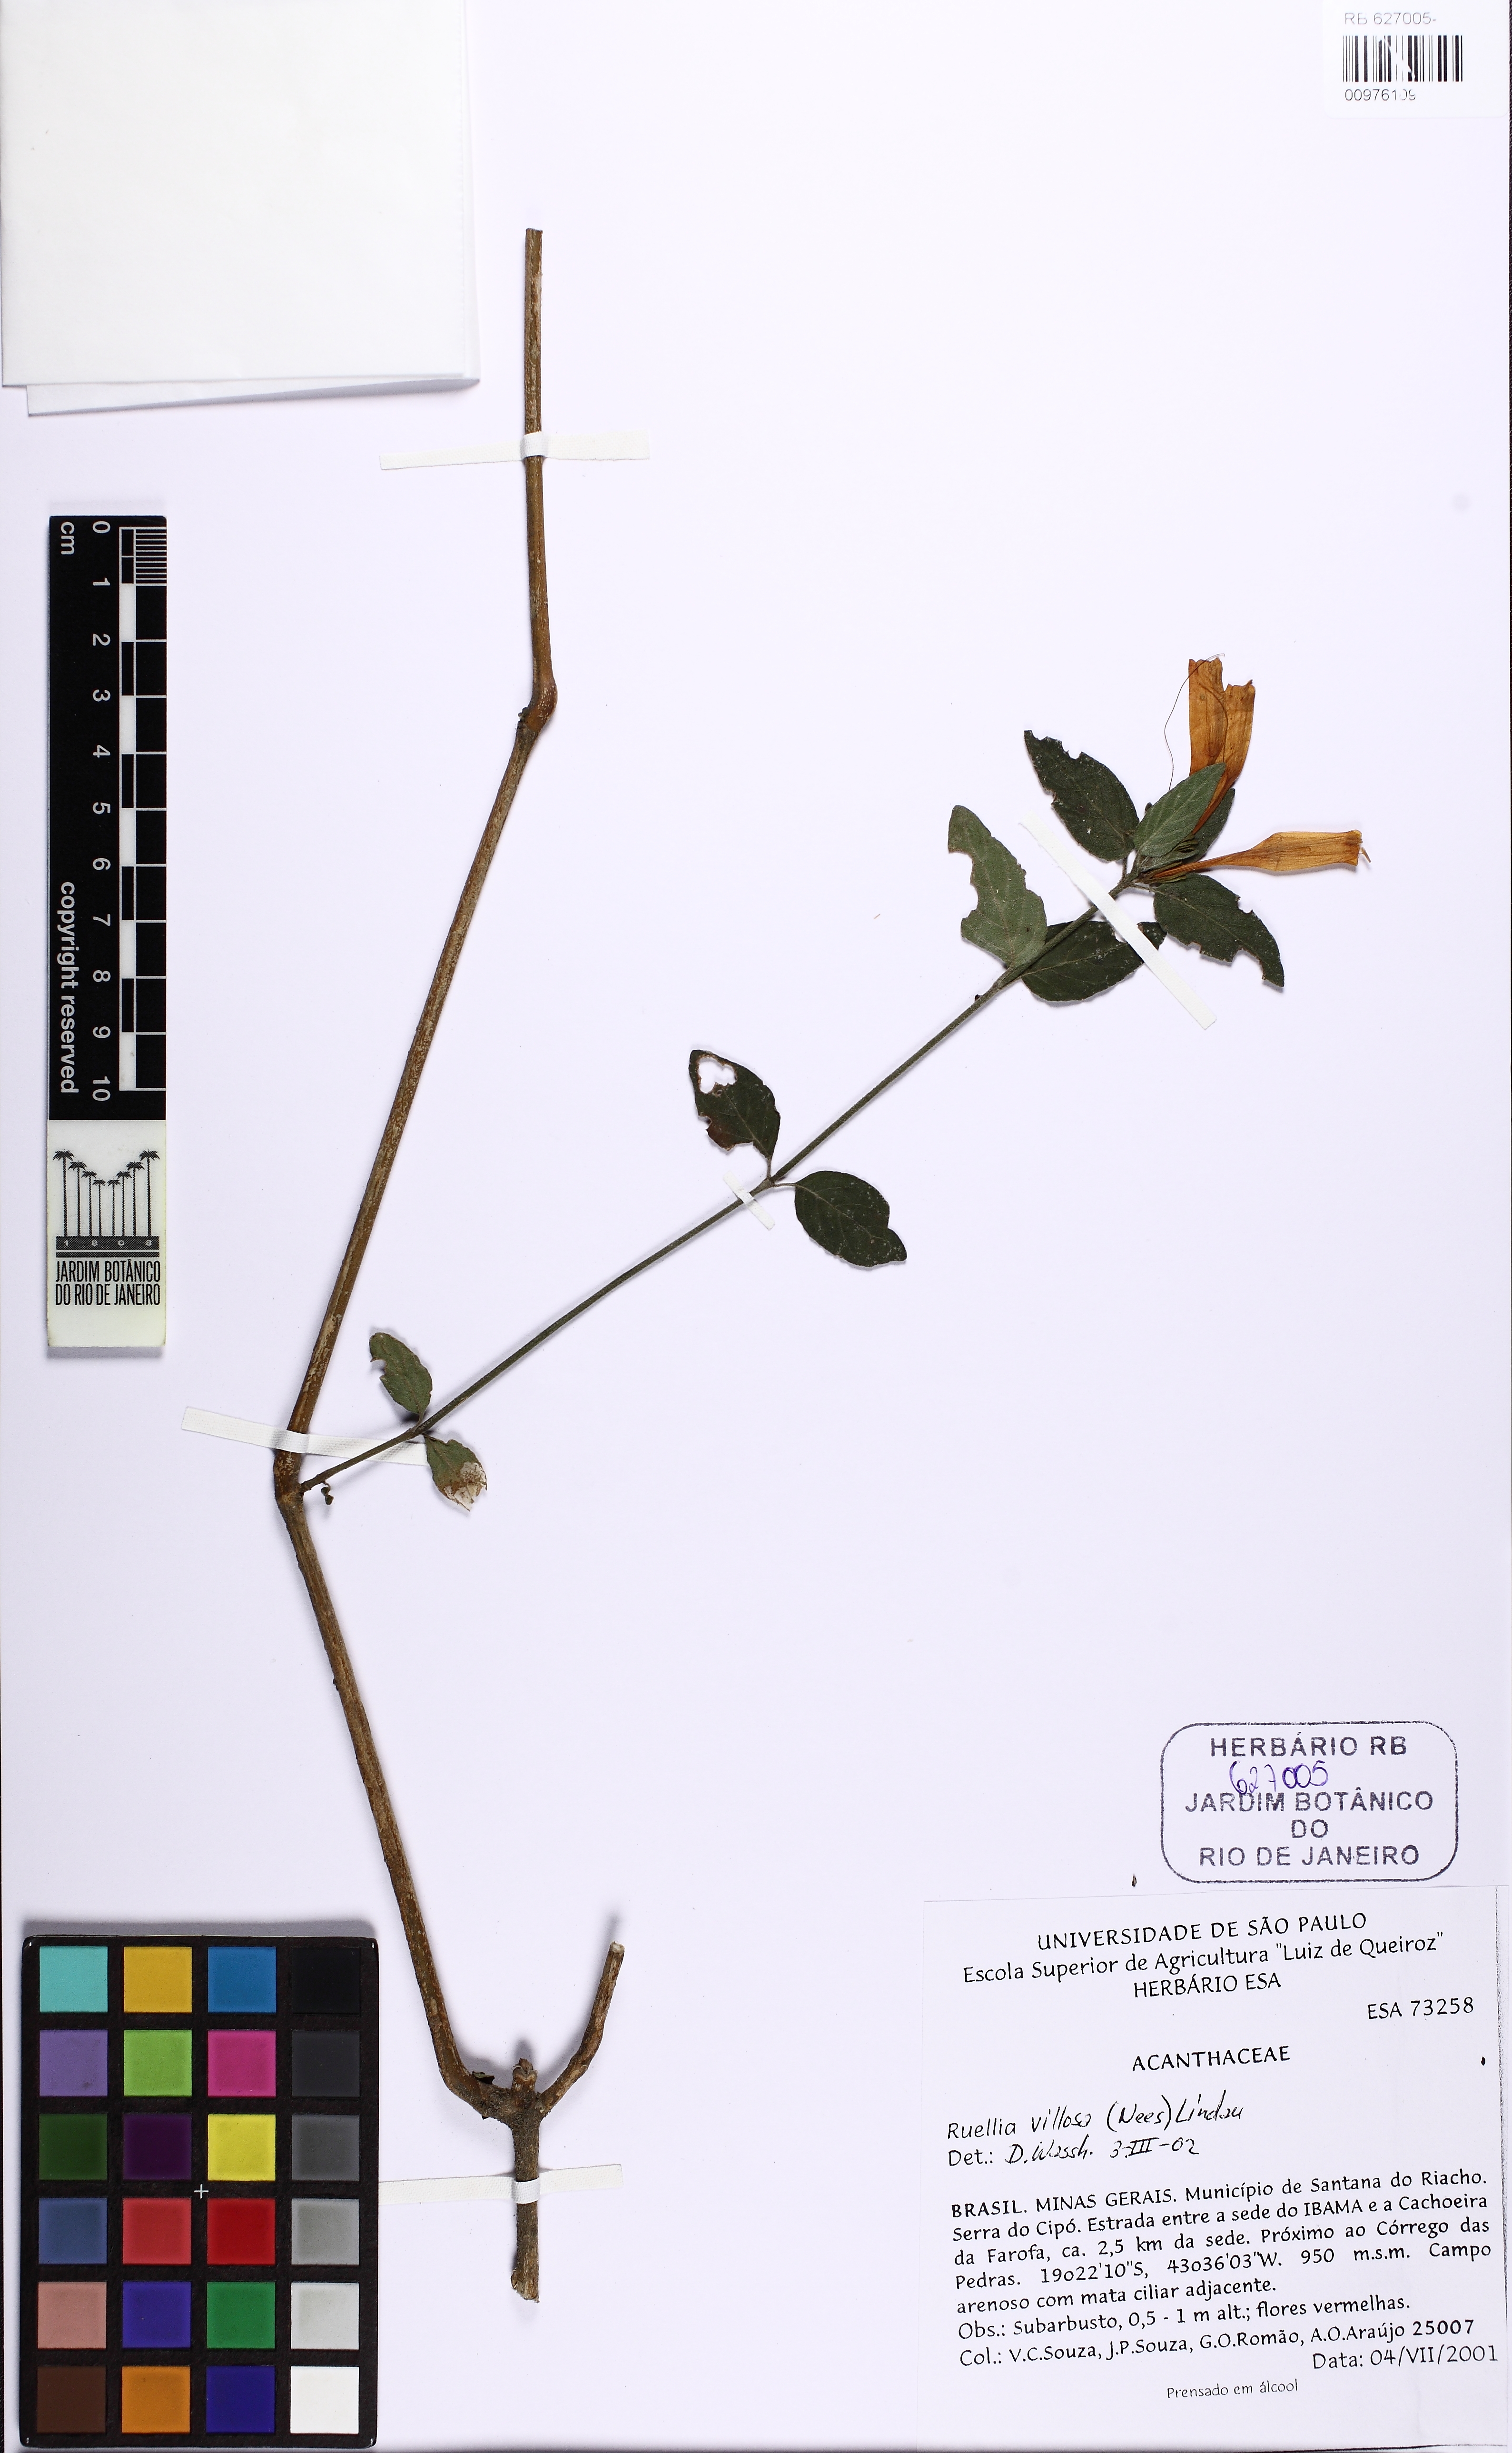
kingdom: Plantae
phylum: Tracheophyta
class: Magnoliopsida
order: Lamiales
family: Acanthaceae
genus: Ruellia
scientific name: Ruellia villosa
